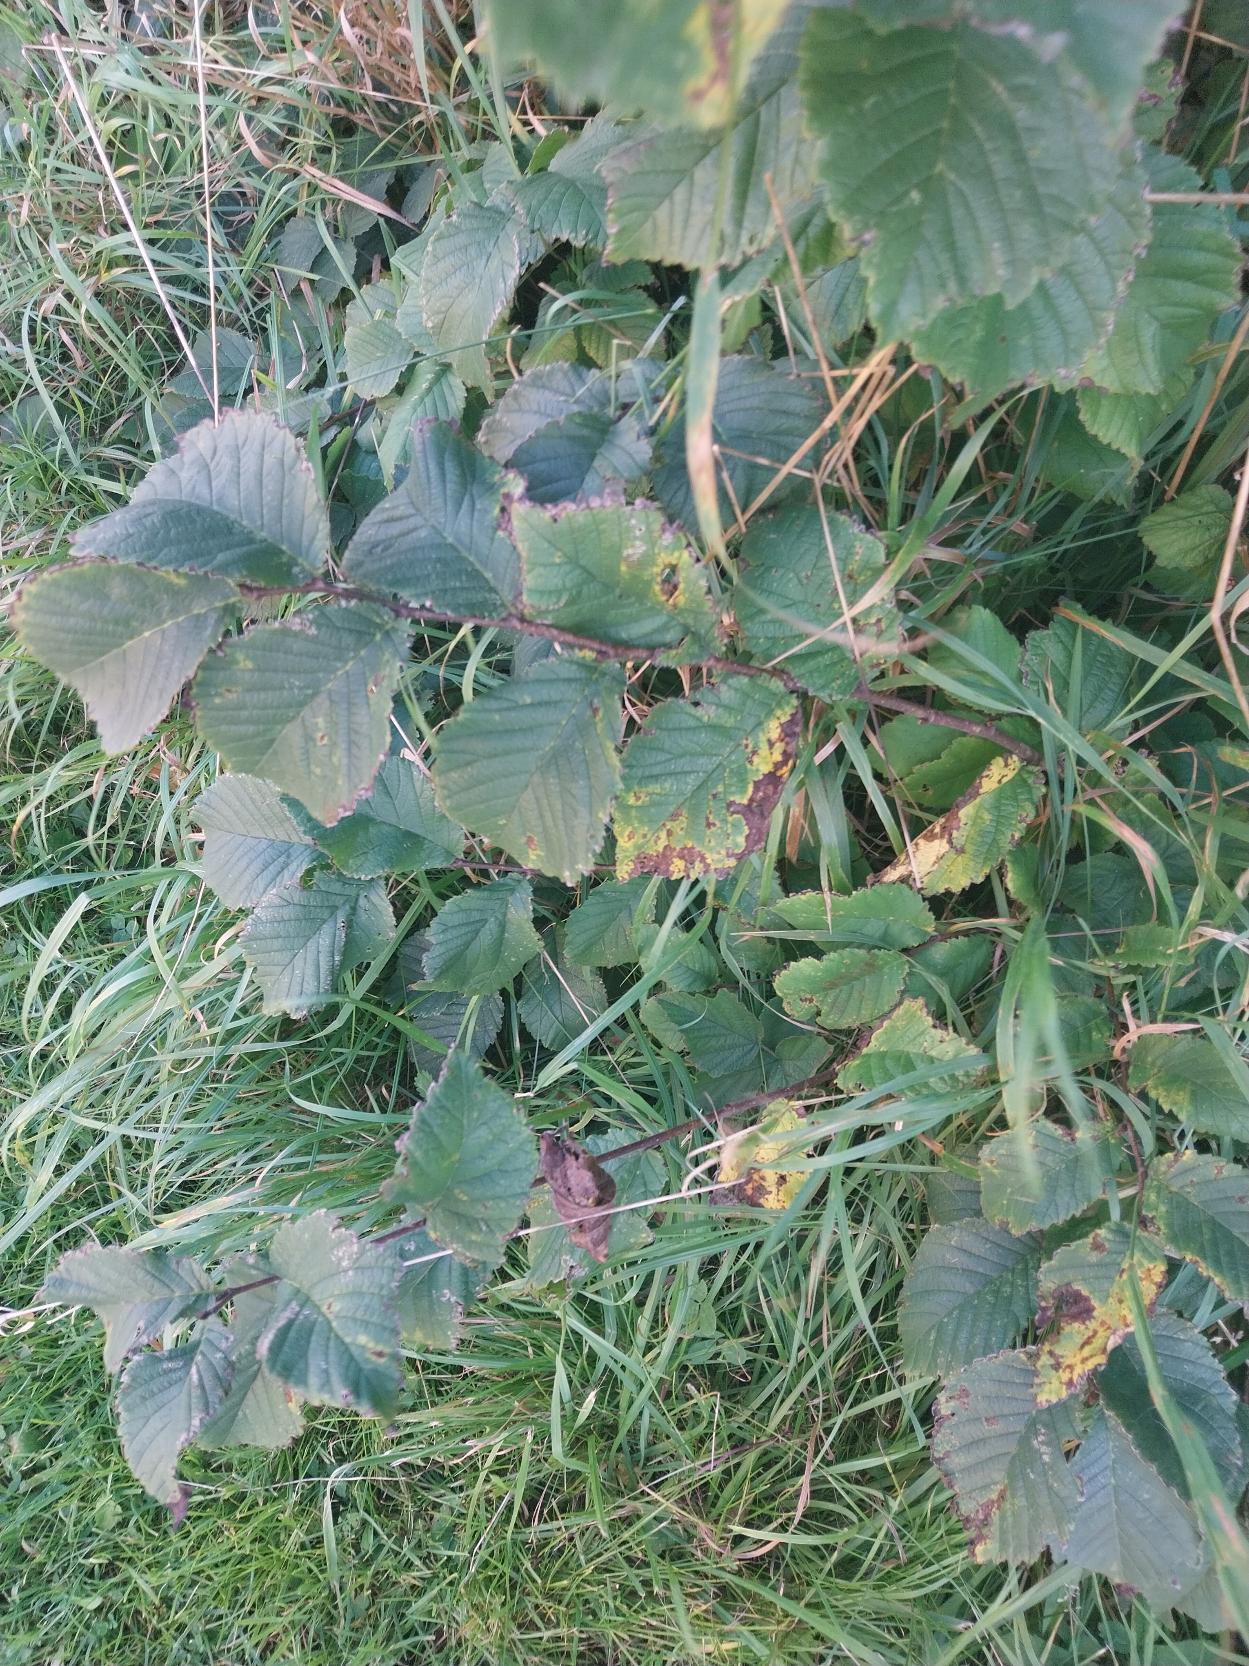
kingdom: Plantae
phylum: Tracheophyta
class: Magnoliopsida
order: Rosales
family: Ulmaceae
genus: Ulmus
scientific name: Ulmus glabra
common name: Skov-elm/storbladet elm
